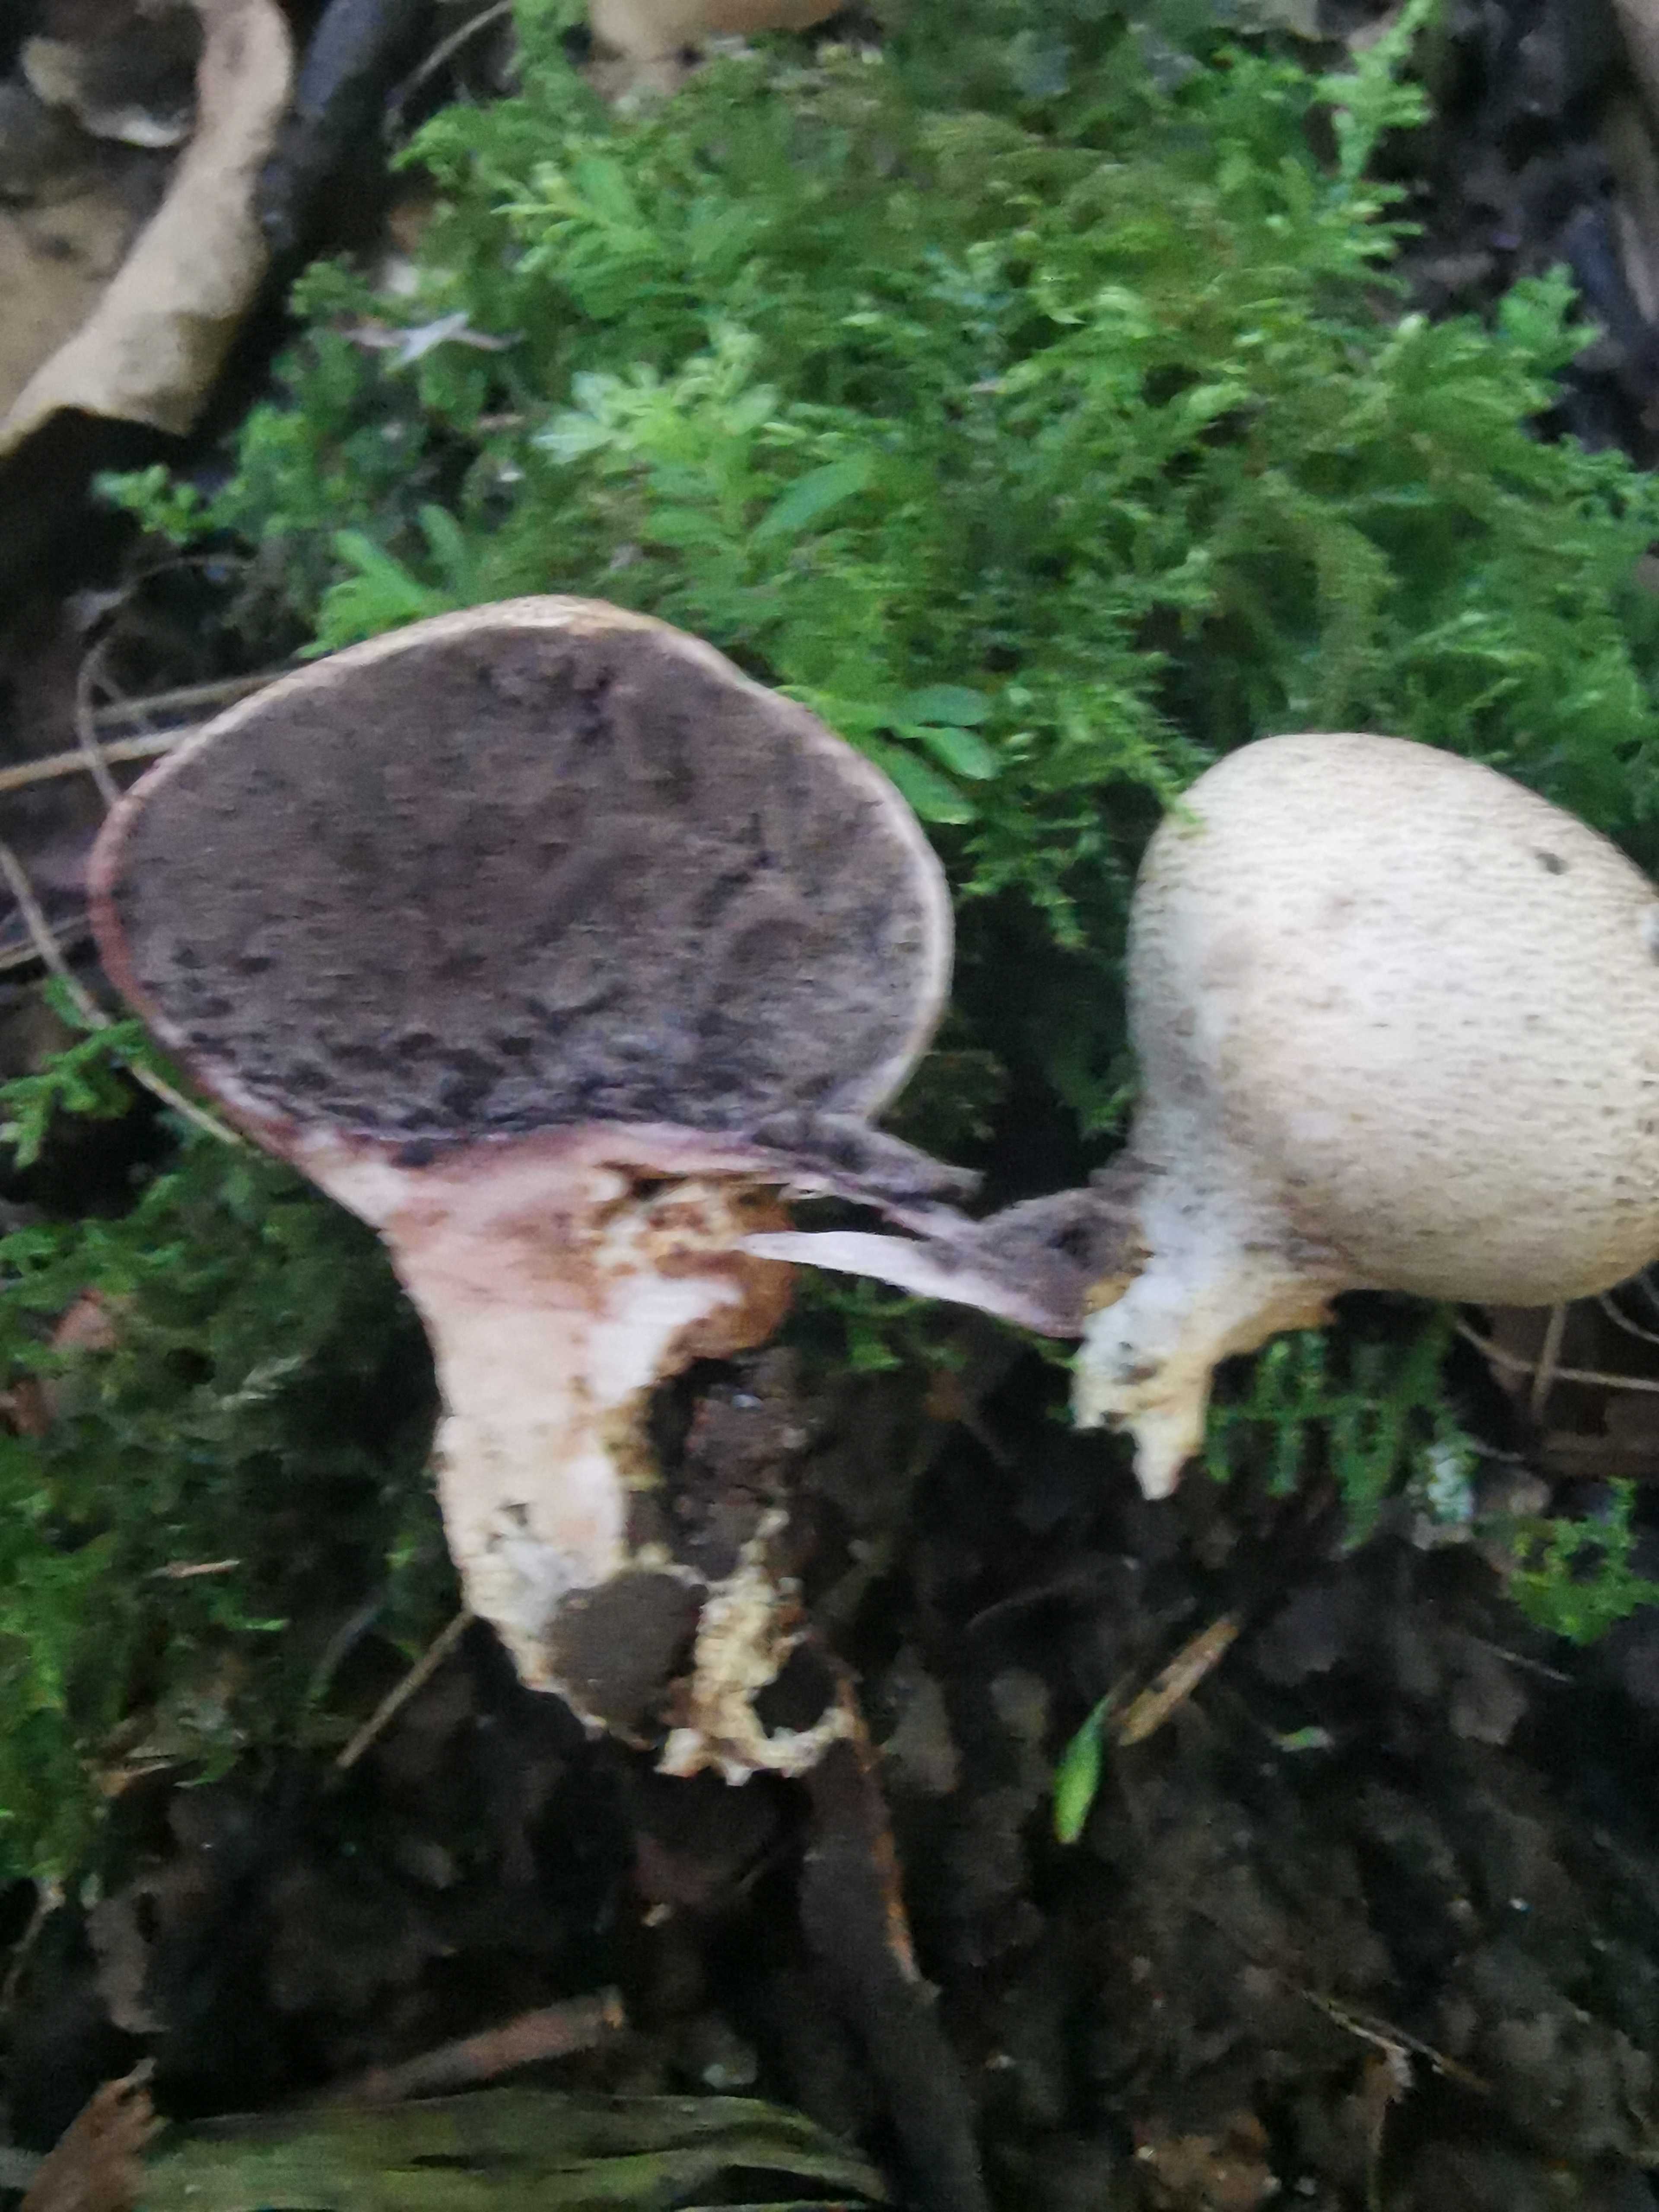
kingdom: Fungi
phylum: Basidiomycota
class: Agaricomycetes
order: Boletales
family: Sclerodermataceae
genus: Scleroderma
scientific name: Scleroderma verrucosum
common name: stilket bruskbold
